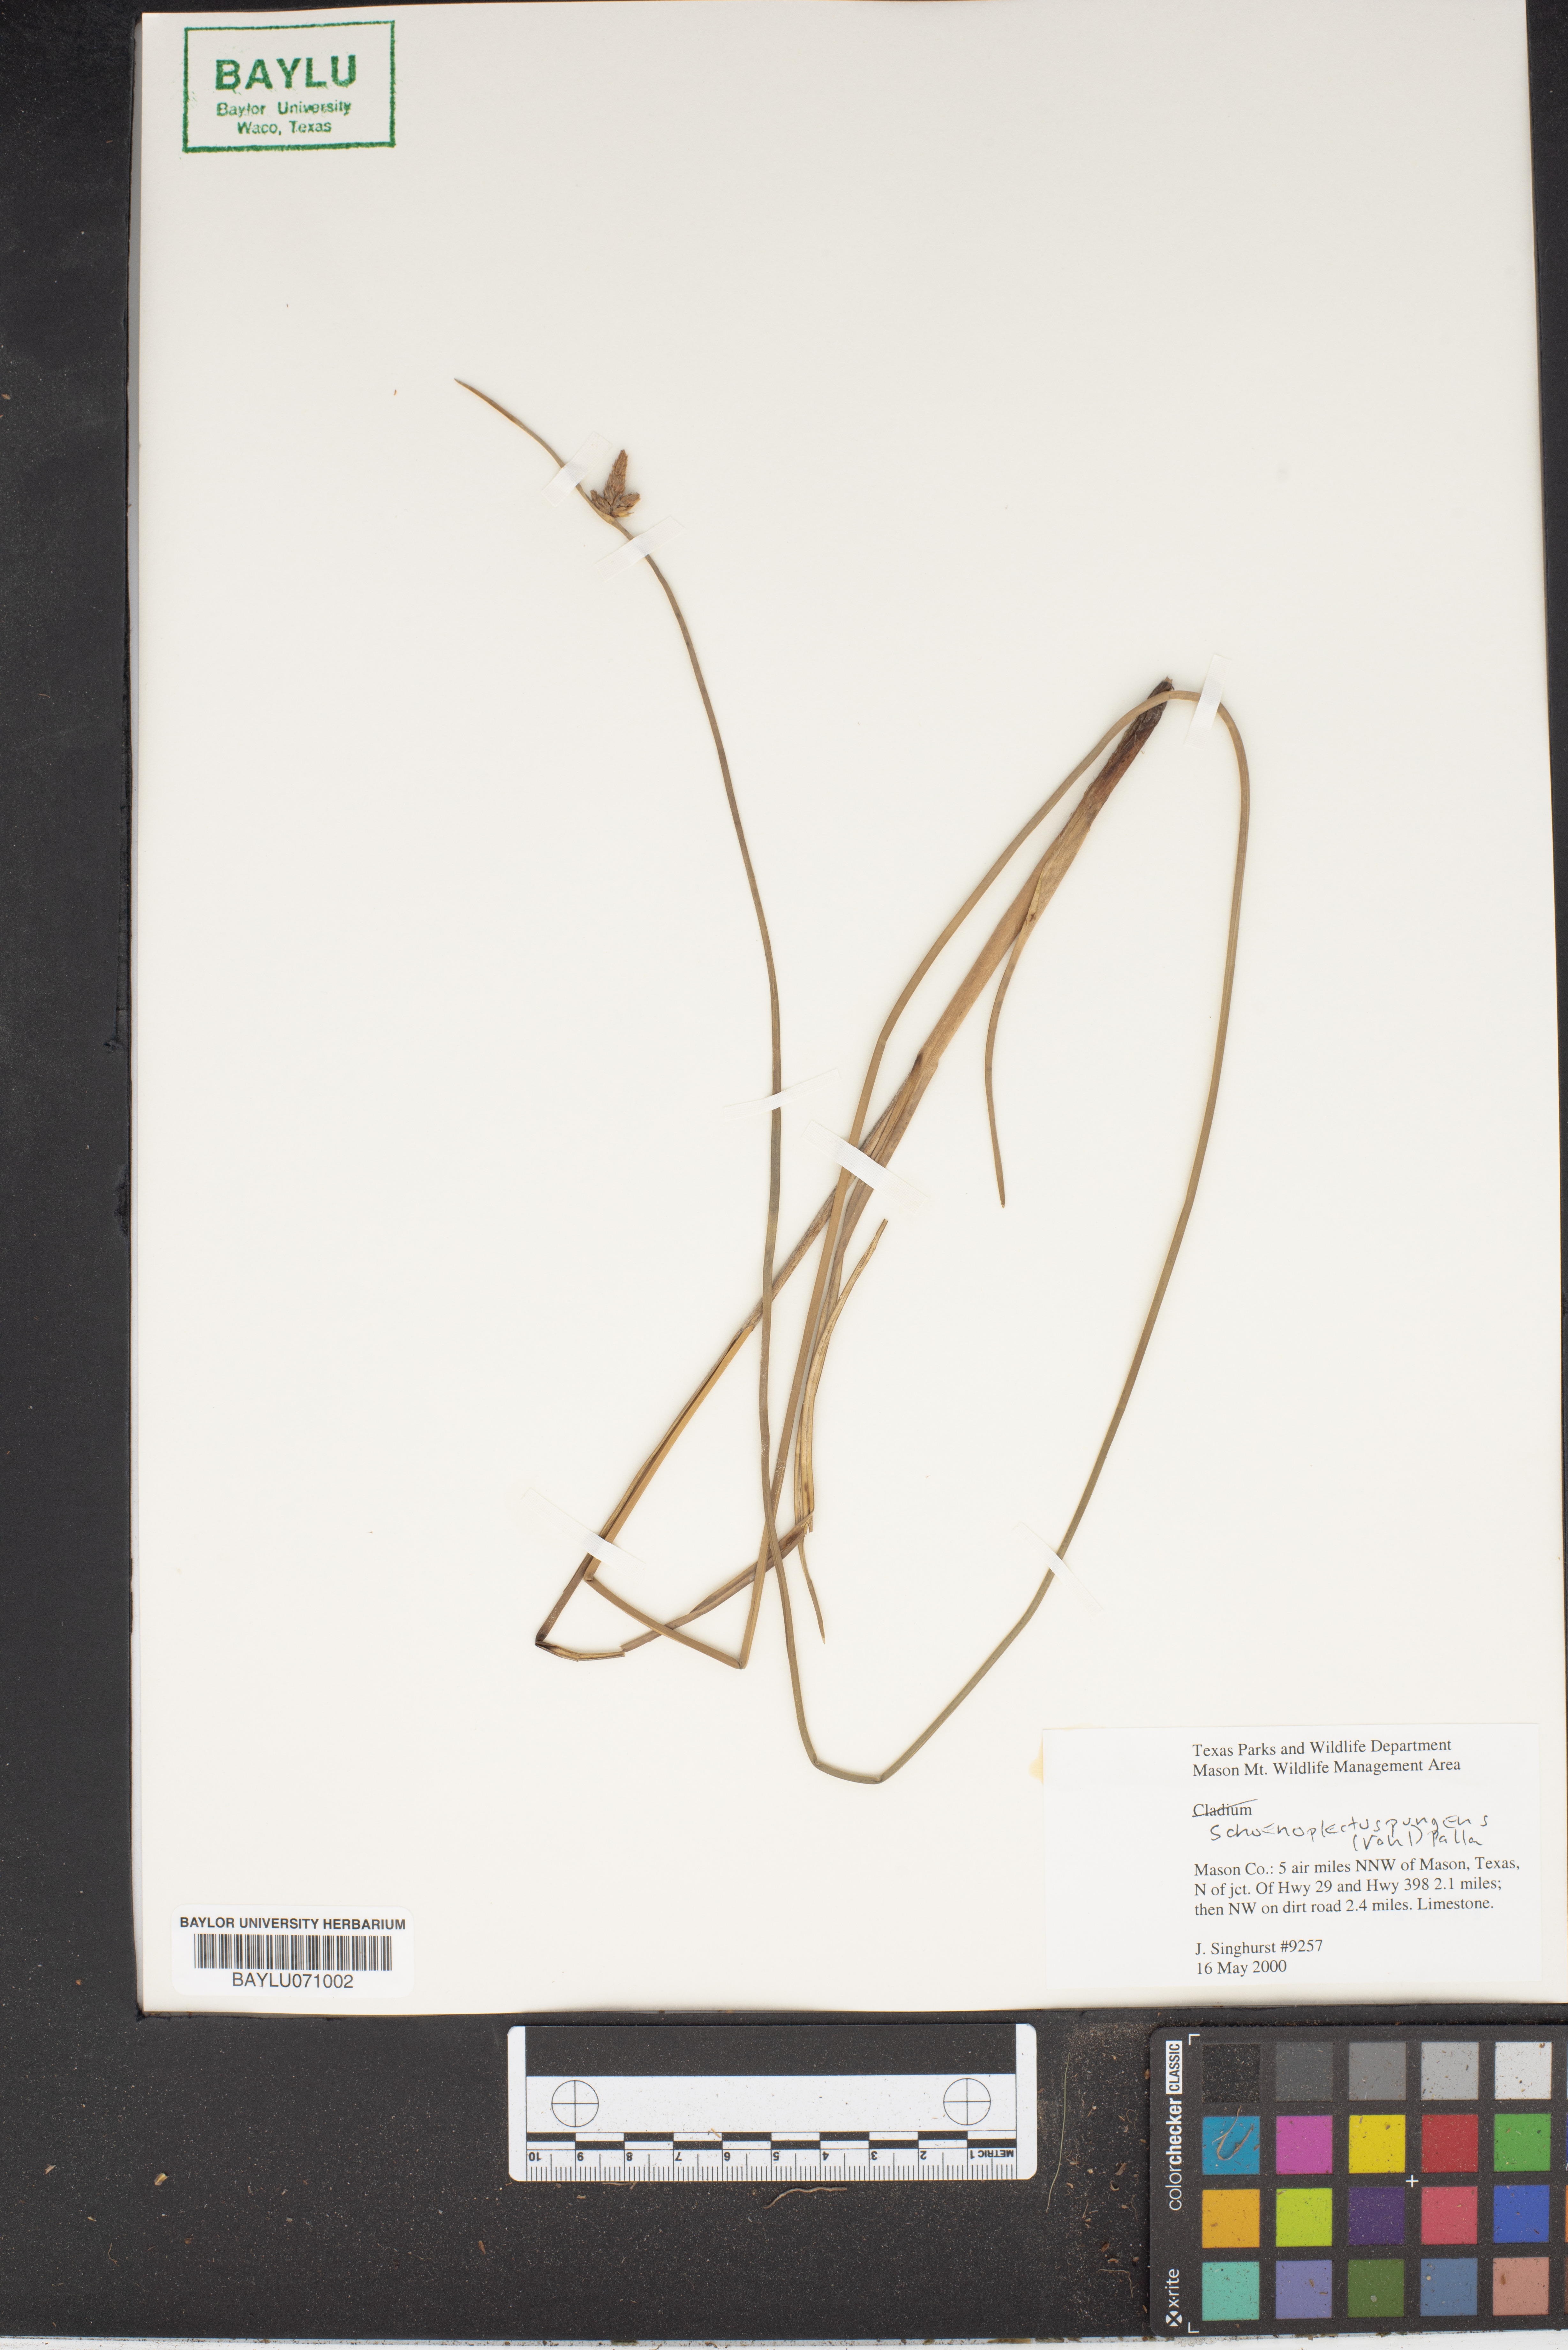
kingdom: Plantae
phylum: Tracheophyta
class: Liliopsida
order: Poales
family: Cyperaceae
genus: Schoenoplectus
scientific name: Schoenoplectus pungens
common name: Sharp club-rush
